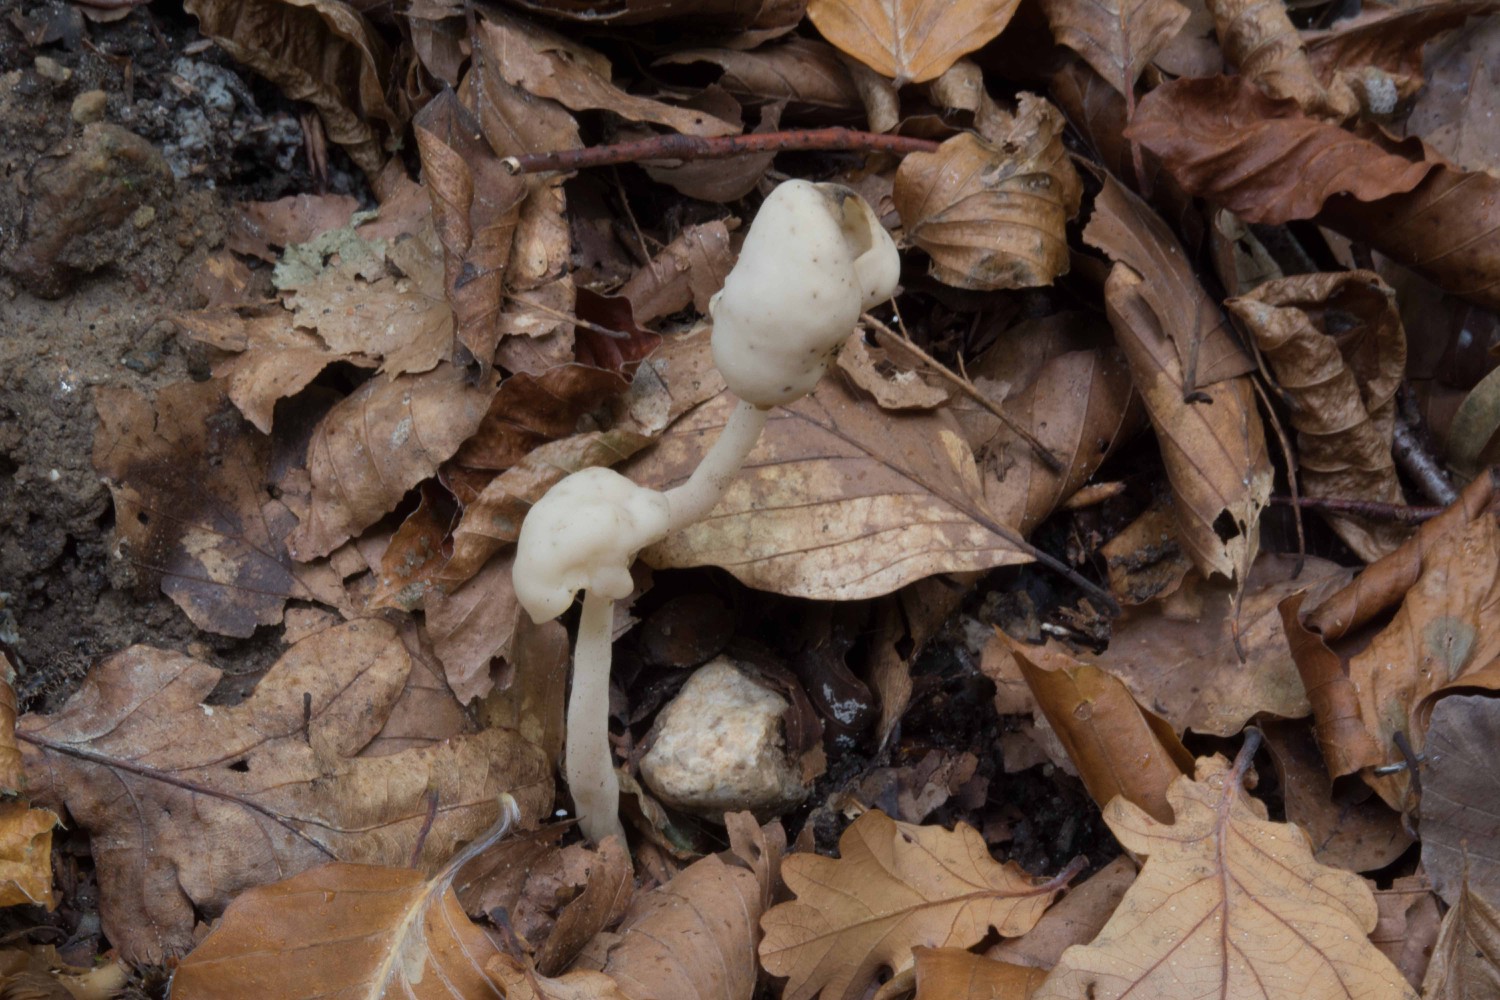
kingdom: Fungi
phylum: Ascomycota
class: Pezizomycetes
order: Pezizales
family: Helvellaceae
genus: Helvella
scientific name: Helvella elastica
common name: elastik-foldhat
